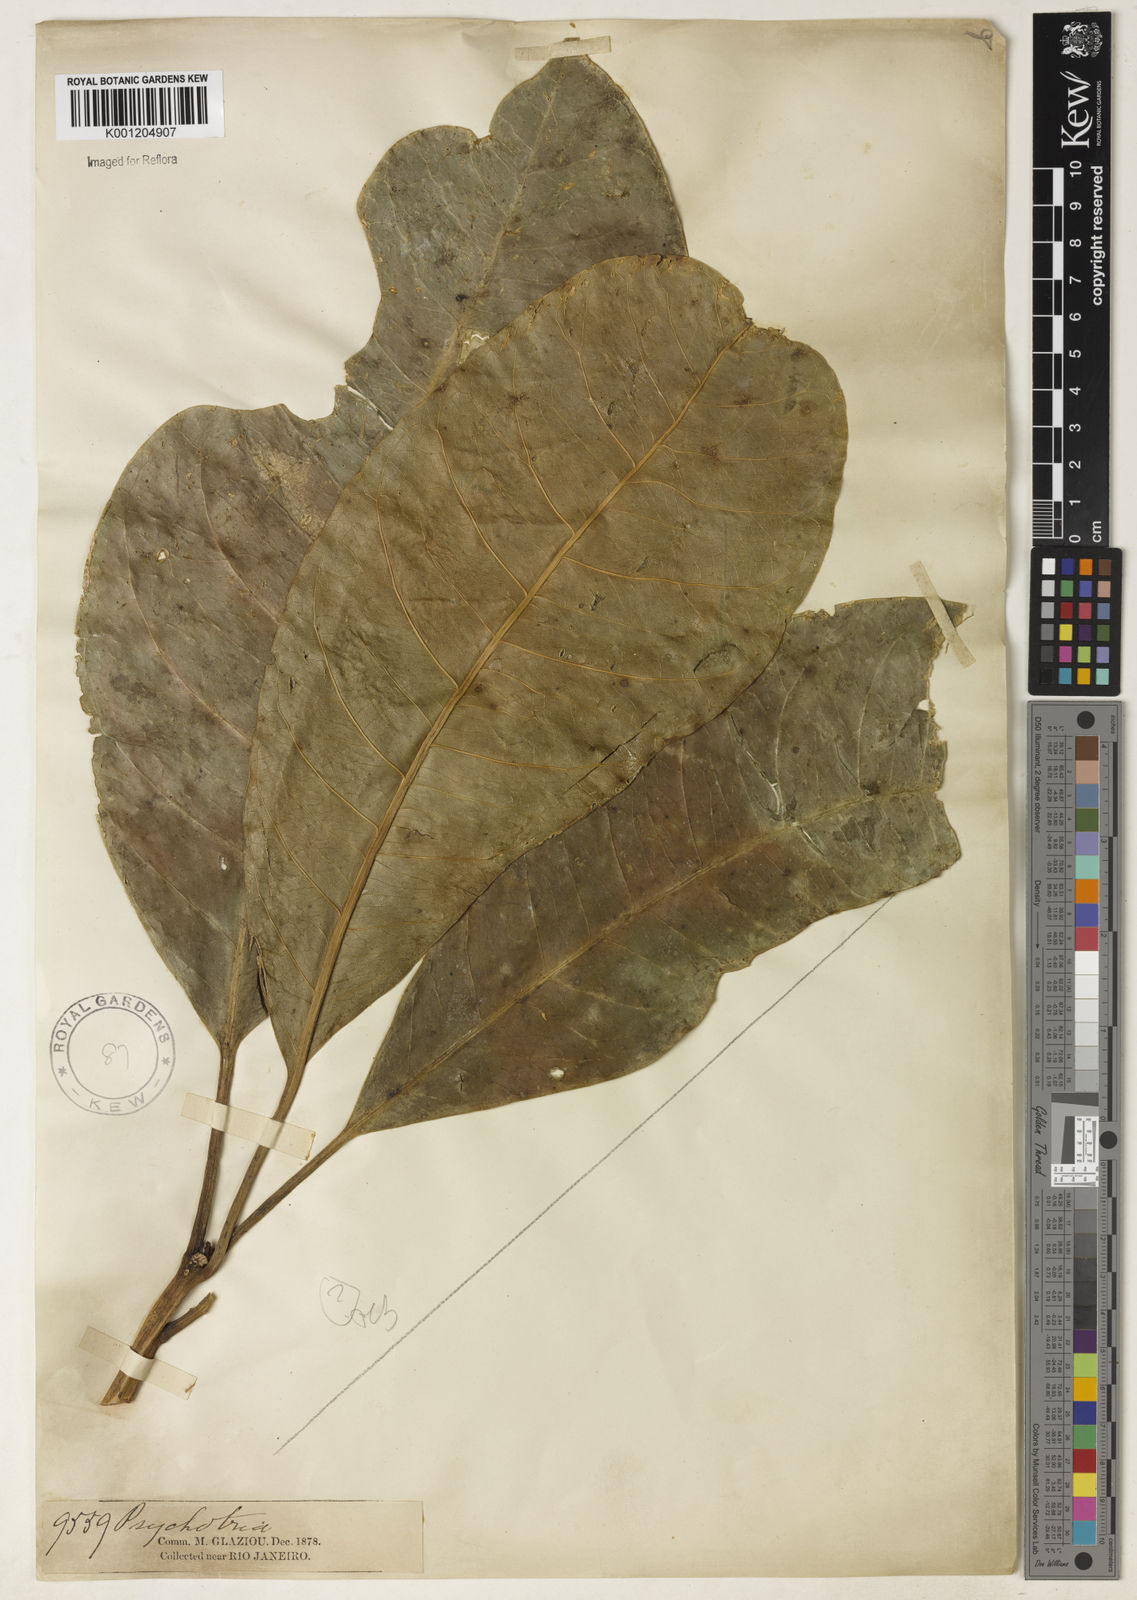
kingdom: Plantae
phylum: Tracheophyta
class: Magnoliopsida
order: Gentianales
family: Rubiaceae
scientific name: Rubiaceae
